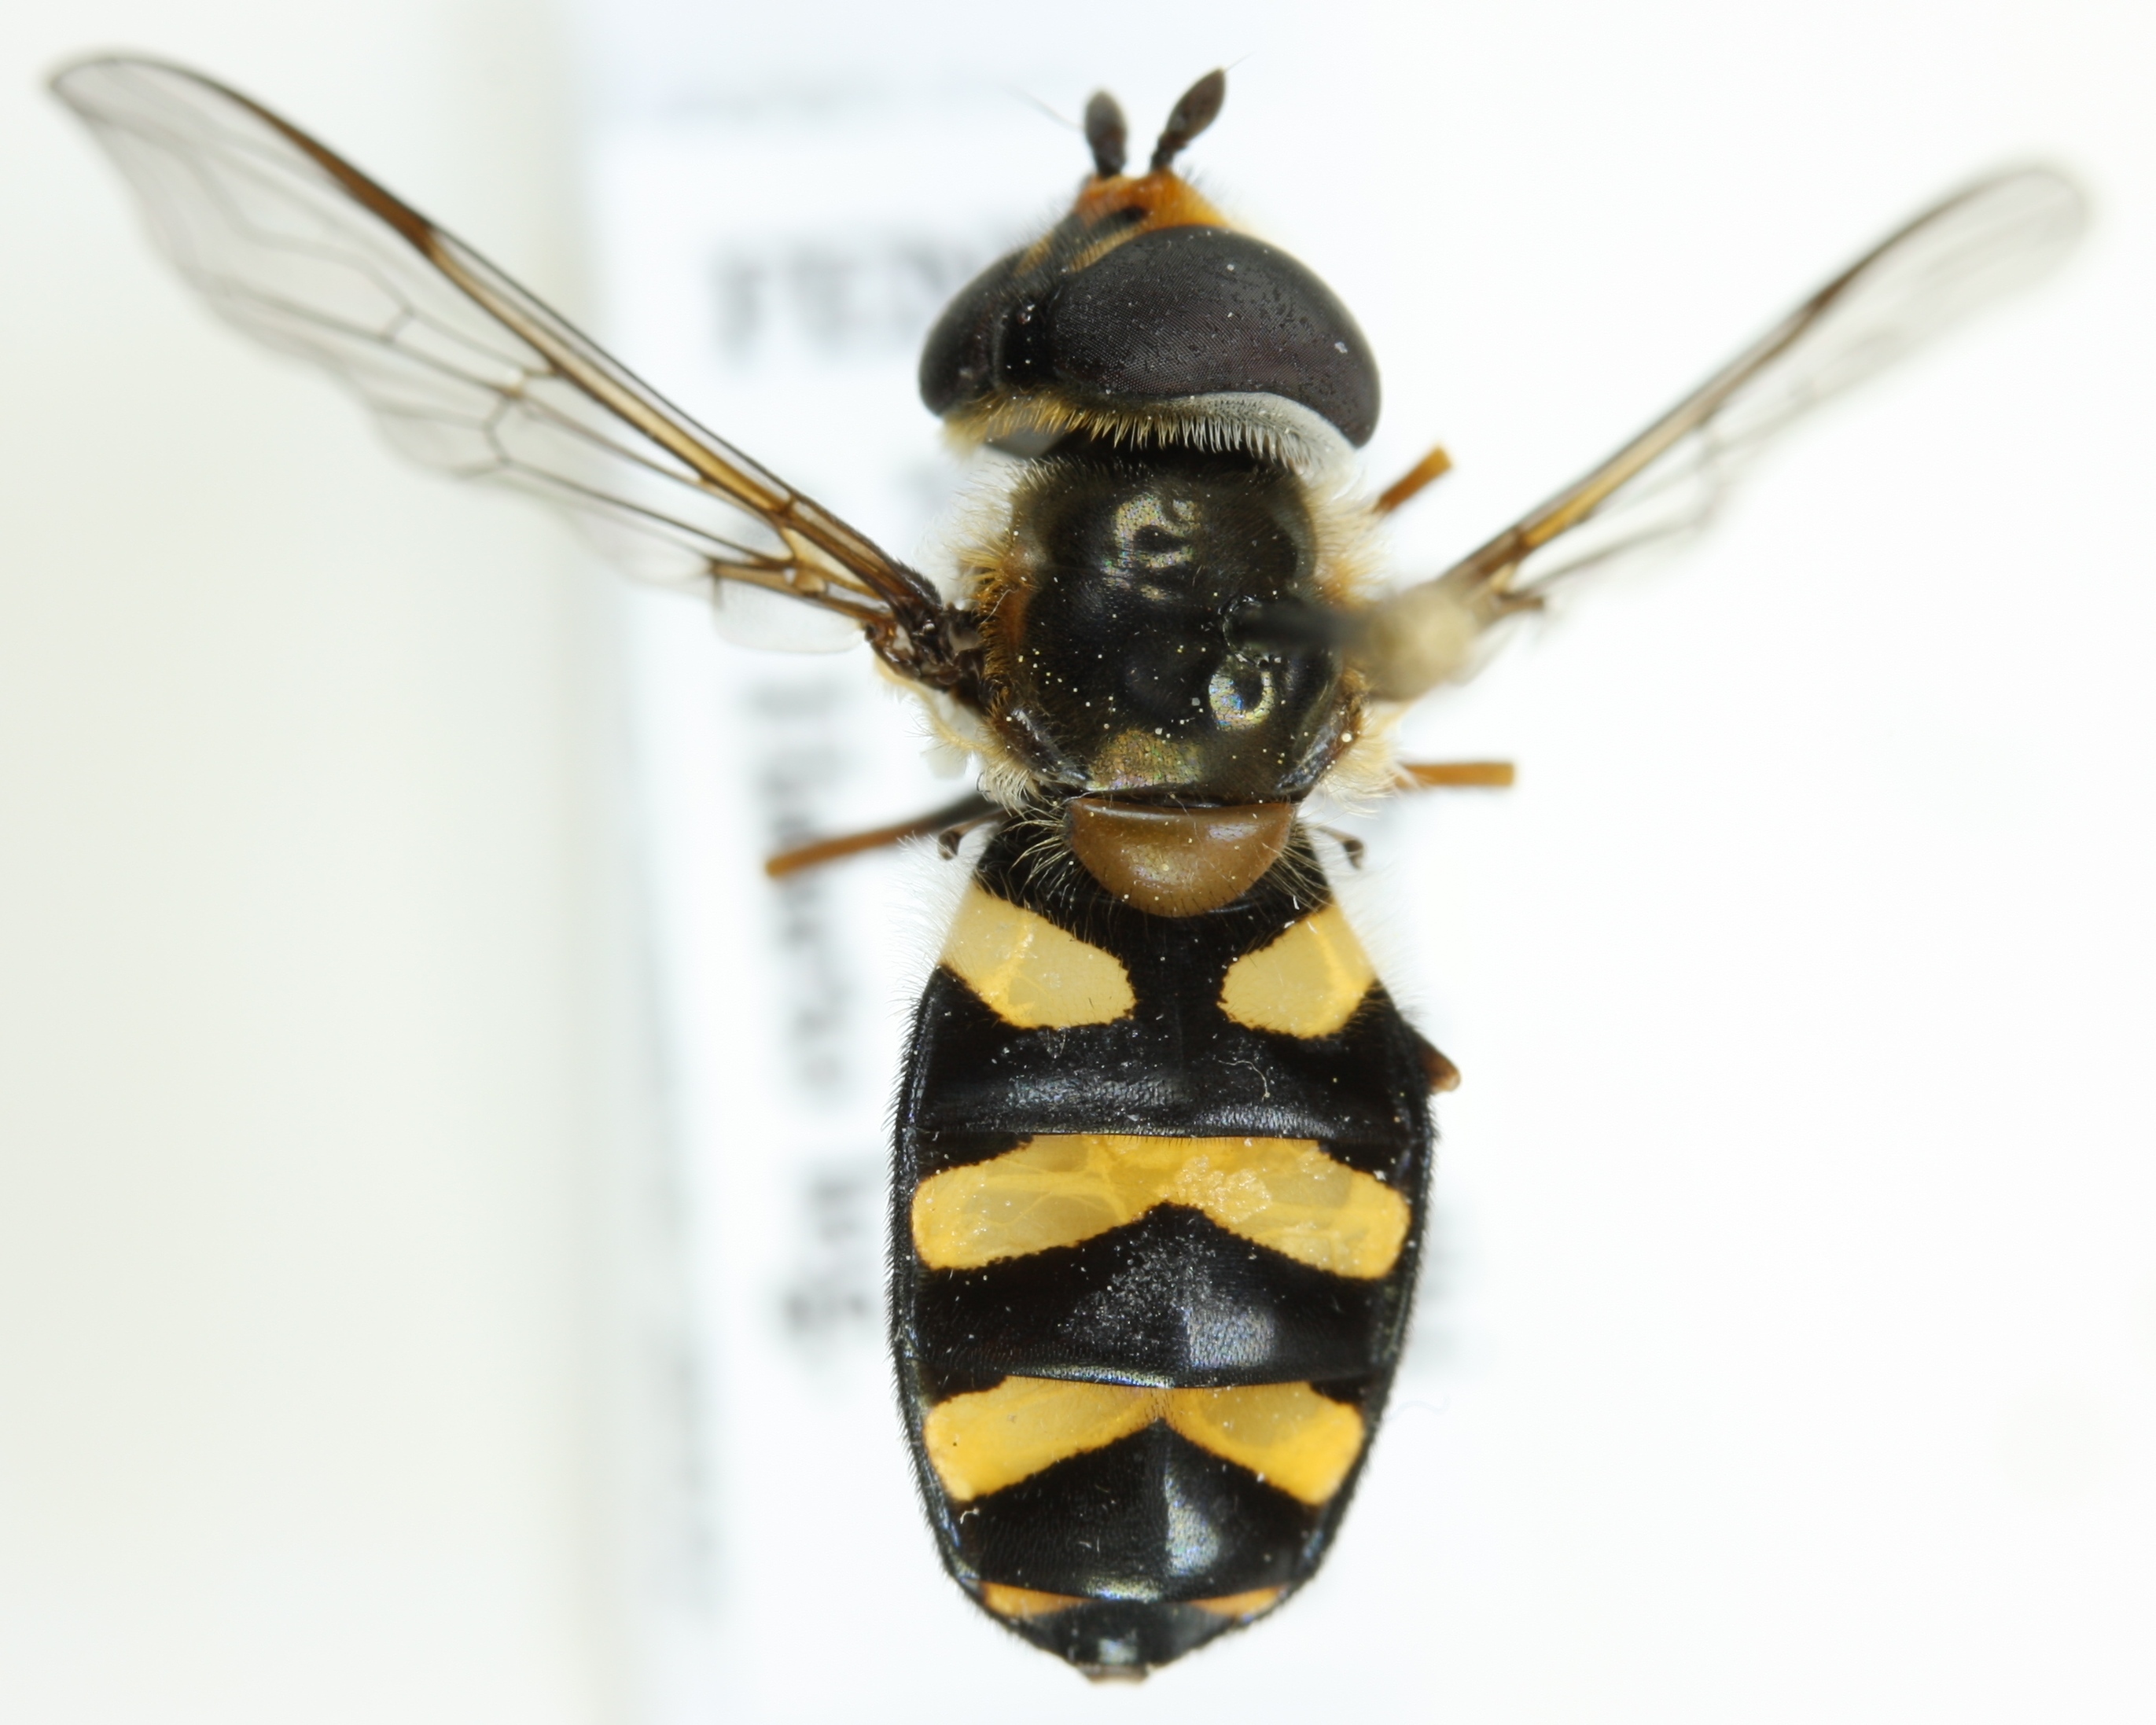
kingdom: Animalia
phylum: Arthropoda
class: Insecta
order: Diptera
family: Syrphidae
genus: Didea
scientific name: Didea intermedia
